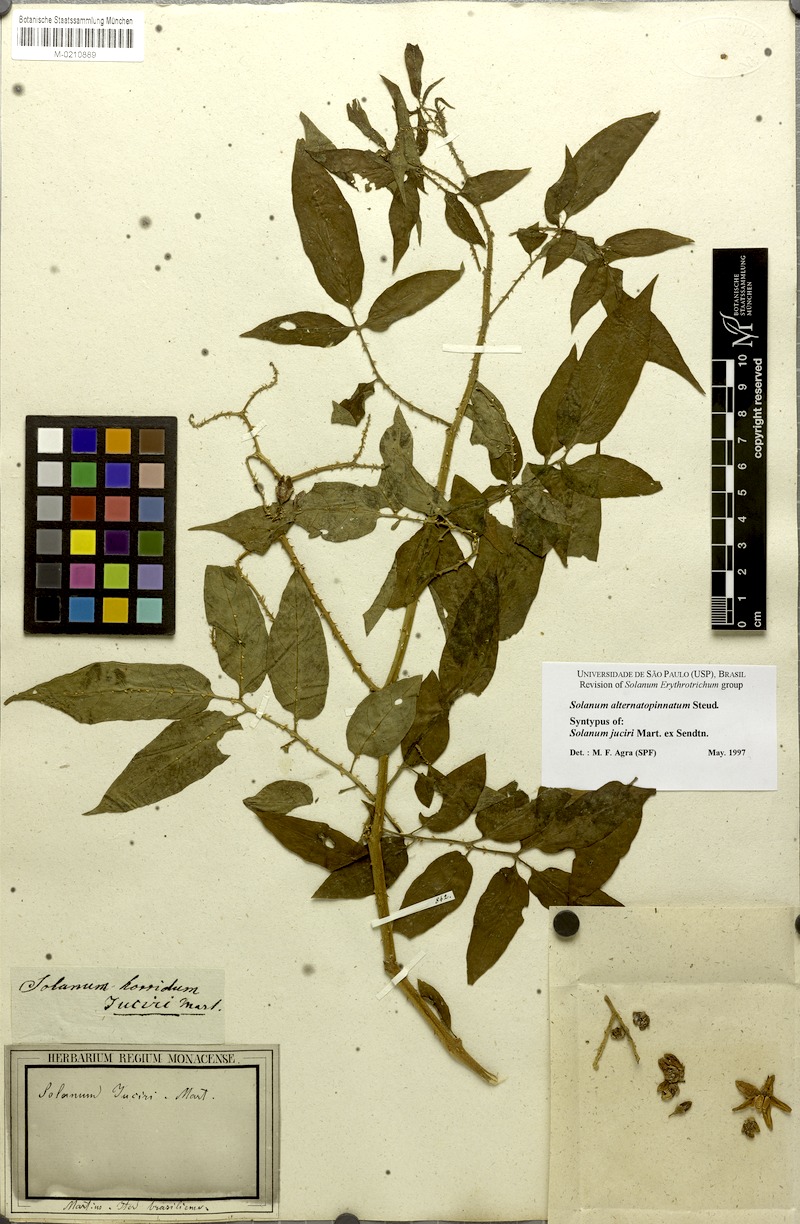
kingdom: Plantae
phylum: Tracheophyta
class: Magnoliopsida
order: Solanales
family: Solanaceae
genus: Solanum
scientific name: Solanum alternatopinnatum
